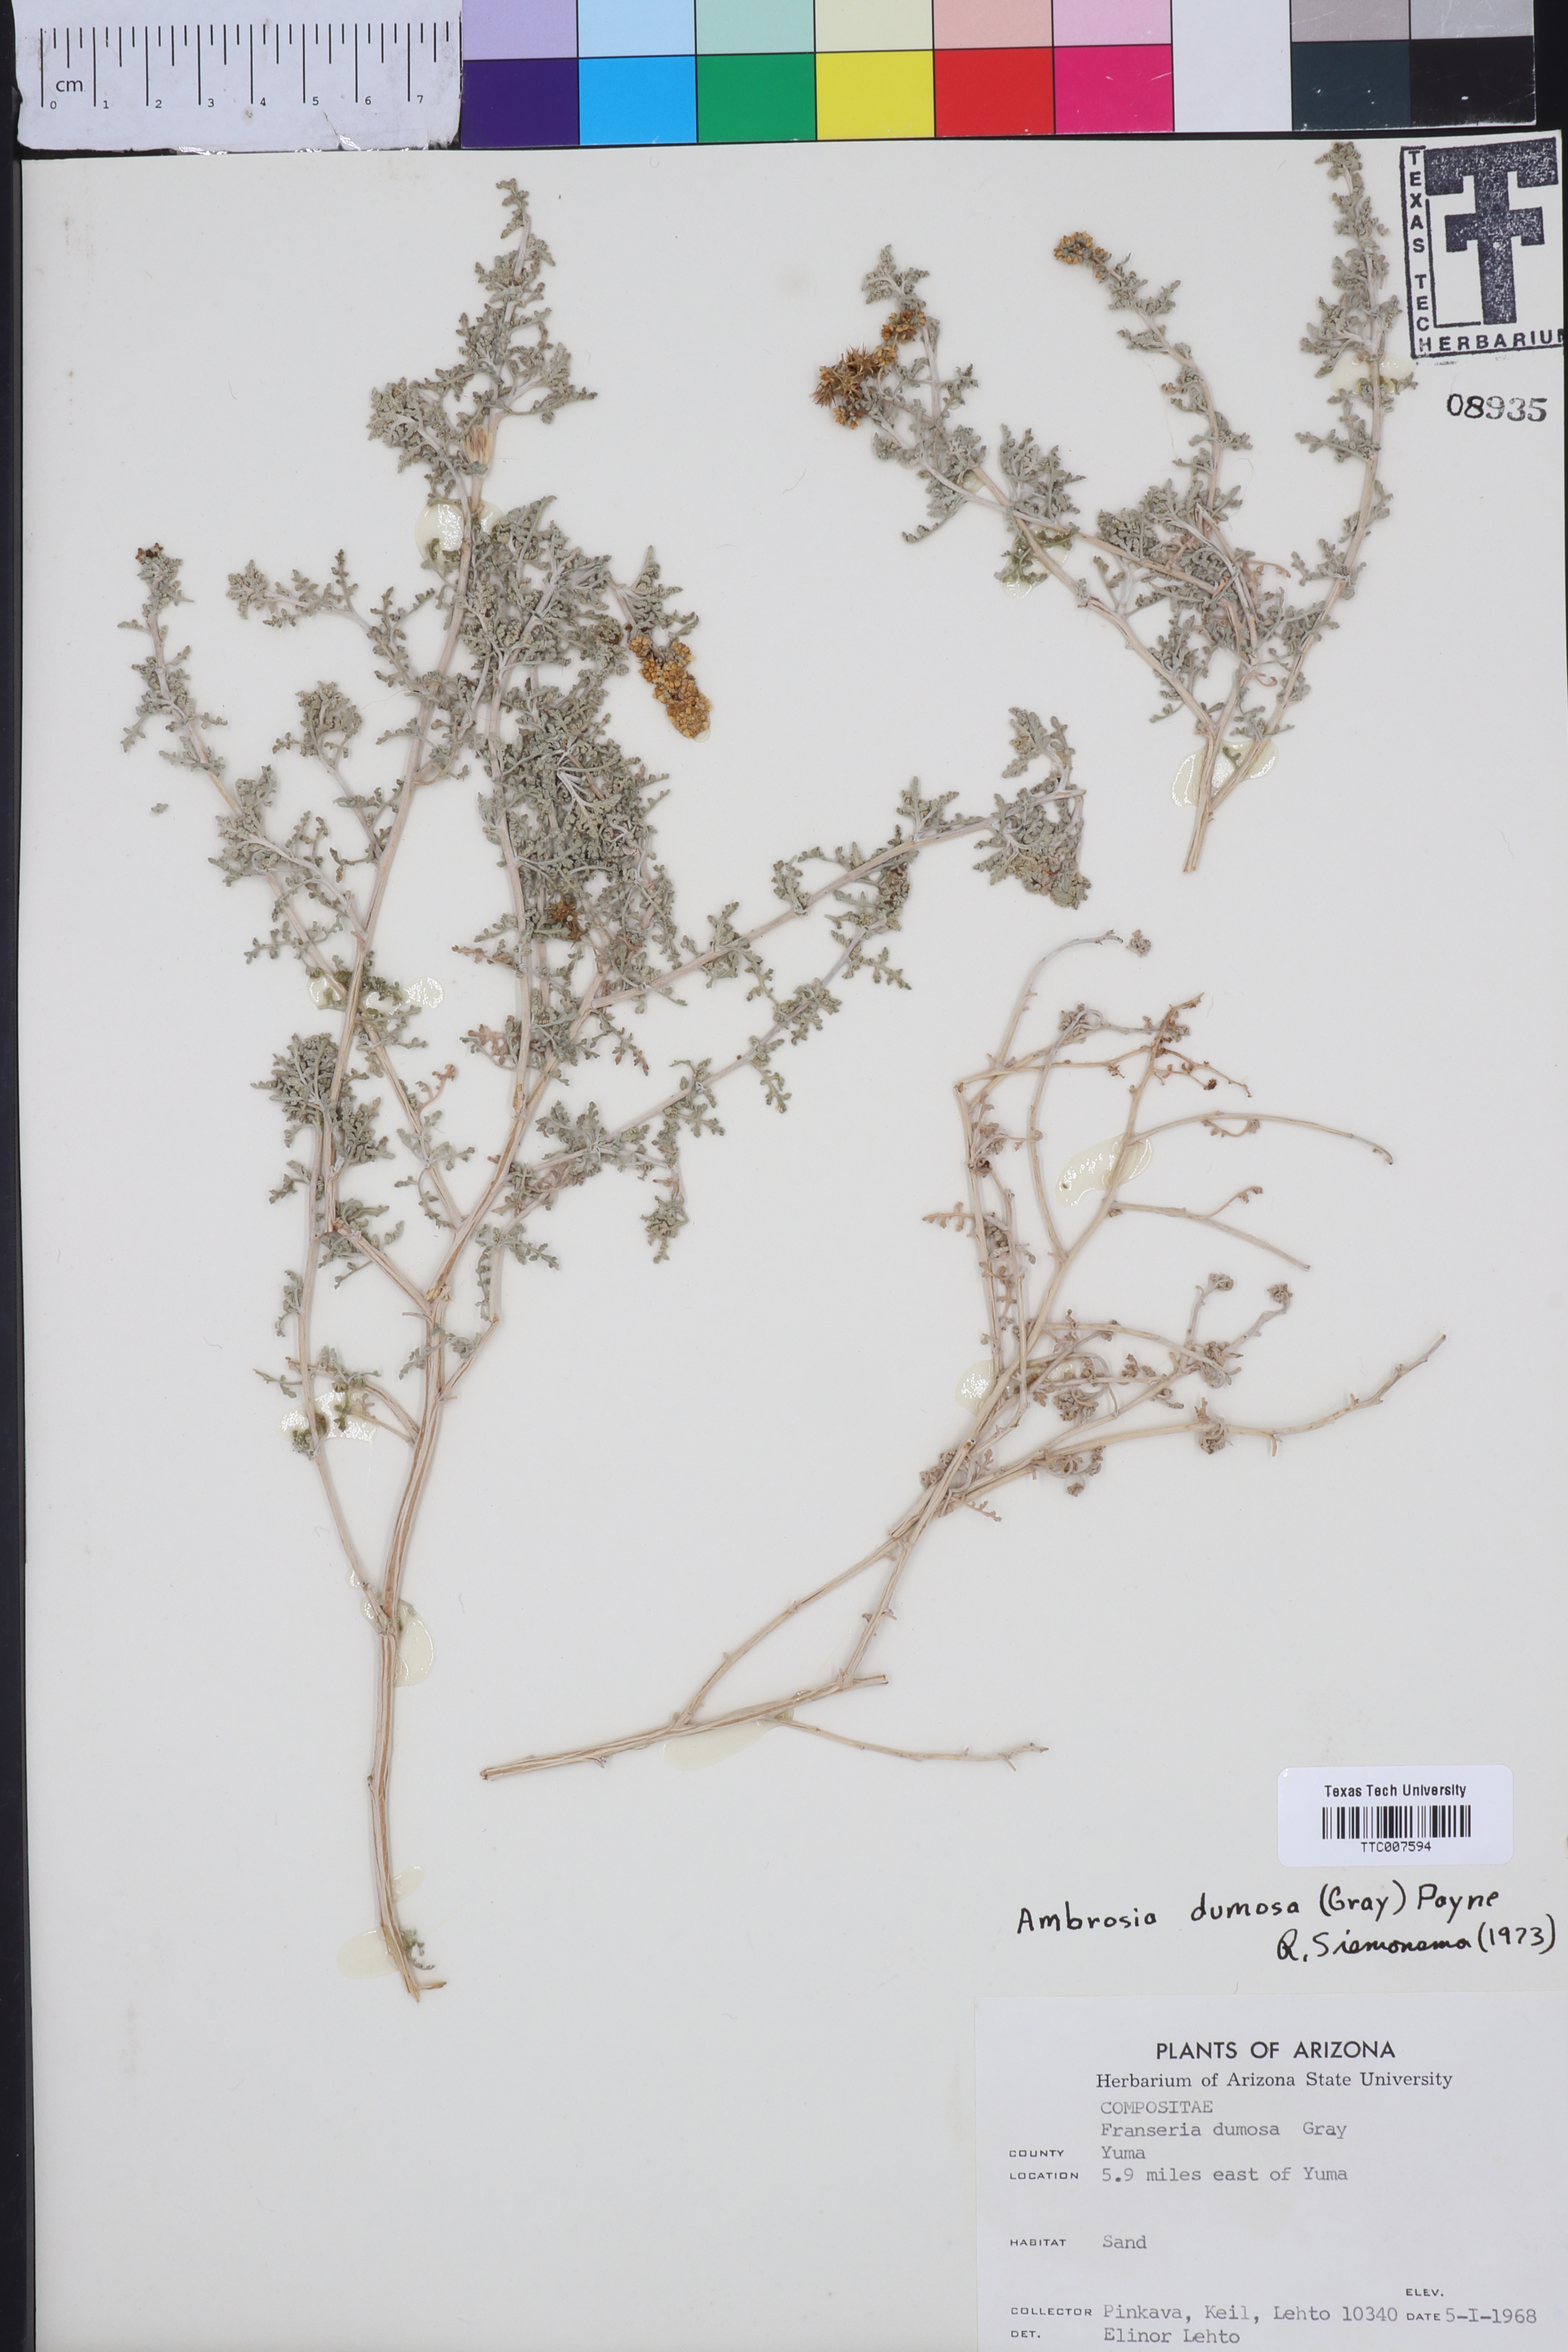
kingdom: Plantae
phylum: Tracheophyta
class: Magnoliopsida
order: Asterales
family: Asteraceae
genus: Ambrosia
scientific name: Ambrosia dumosa
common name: Bur-sage
